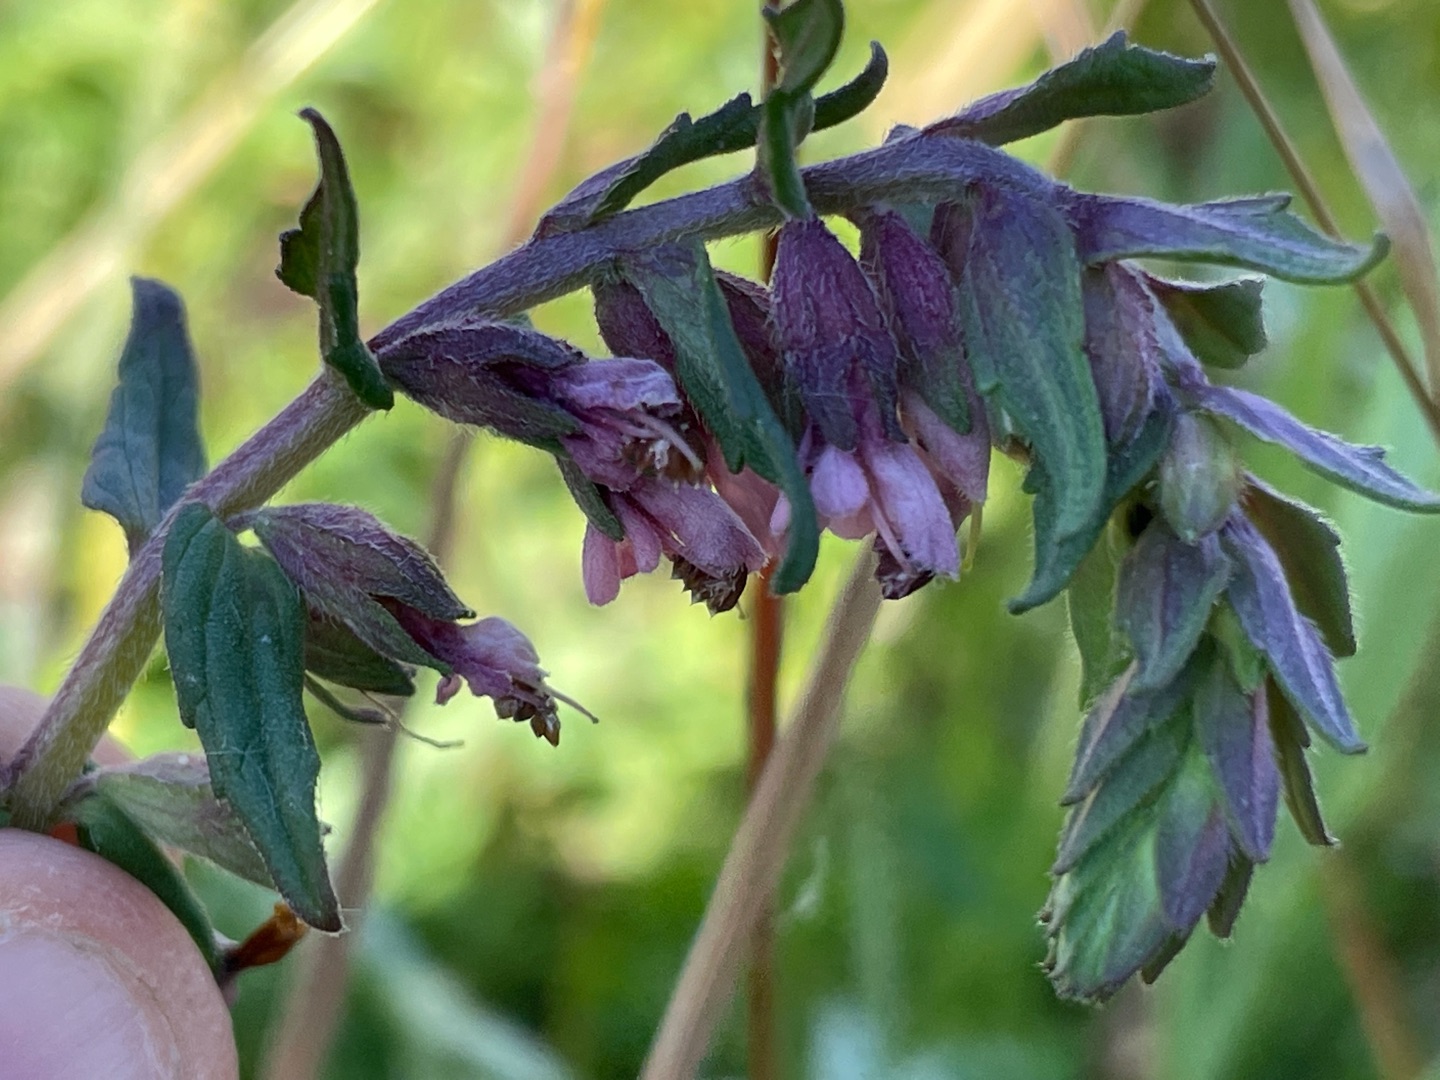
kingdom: Plantae
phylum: Tracheophyta
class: Magnoliopsida
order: Lamiales
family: Orobanchaceae
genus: Odontites
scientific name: Odontites vulgaris
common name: Høst-rødtop
